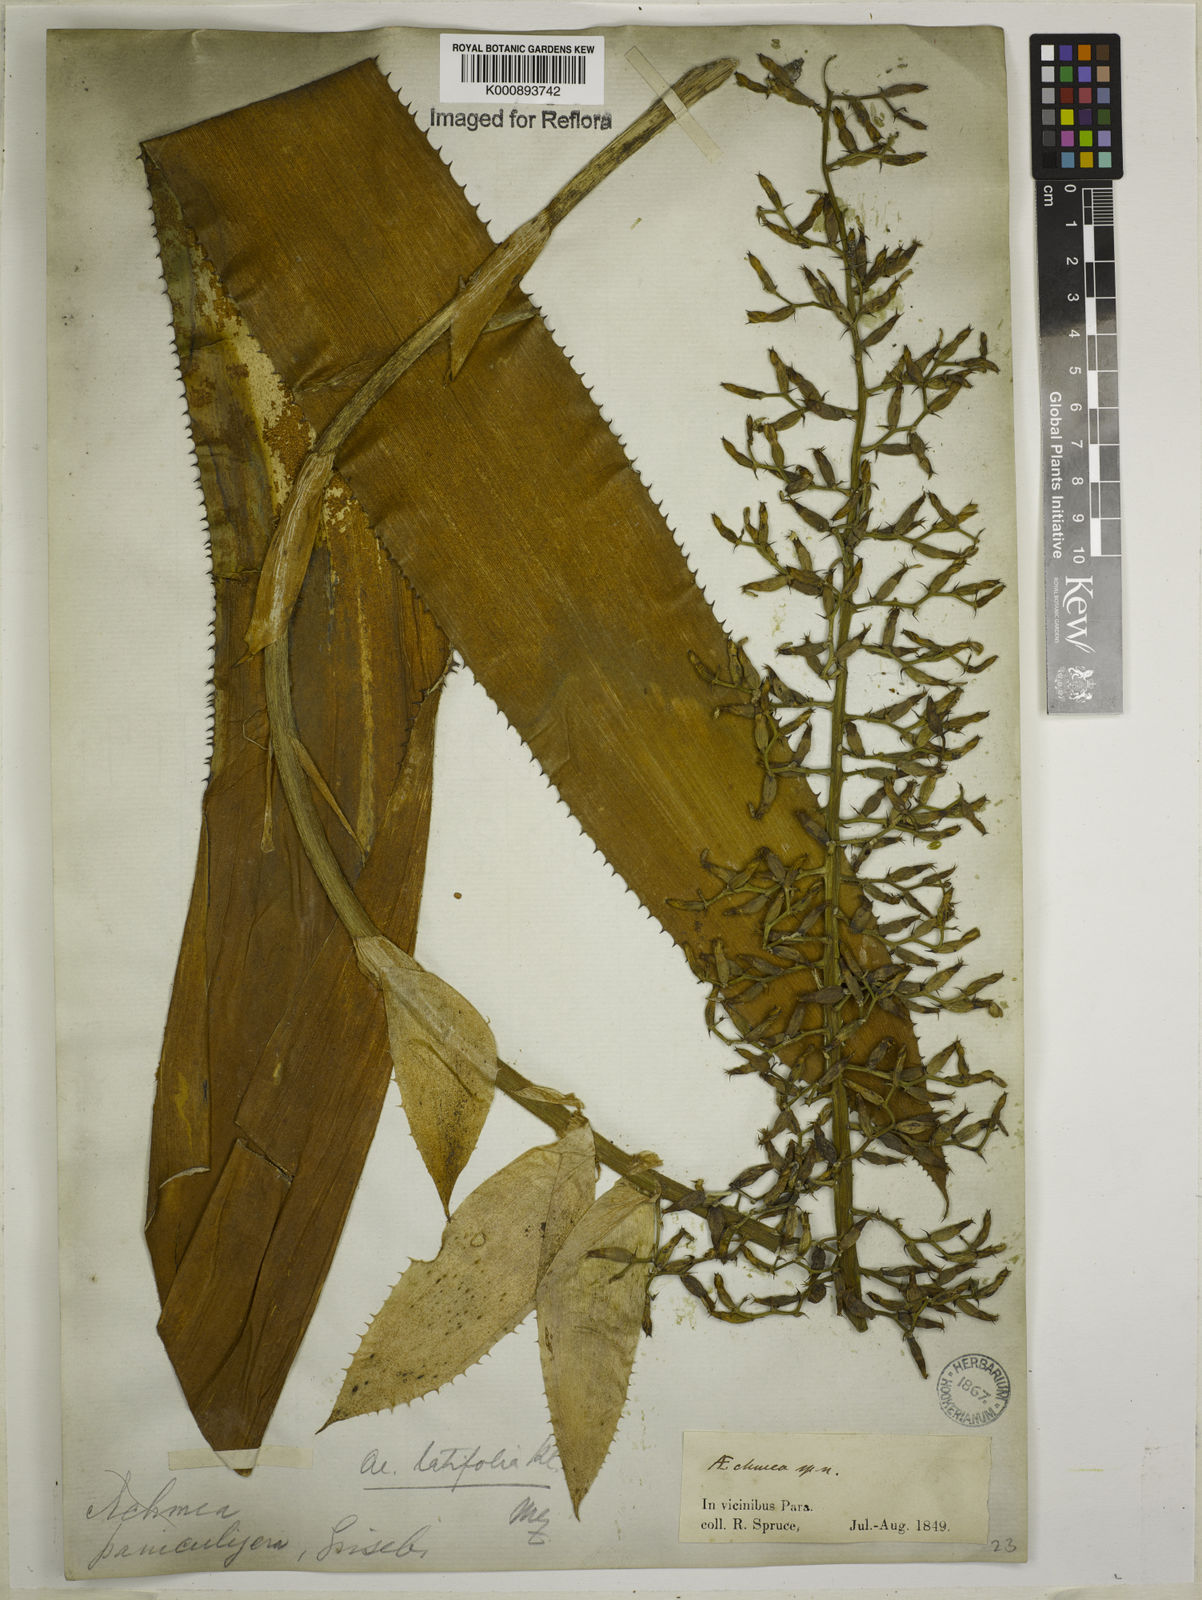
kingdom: Plantae
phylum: Tracheophyta
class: Liliopsida
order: Poales
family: Bromeliaceae
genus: Aechmea
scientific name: Aechmea castelnavii
